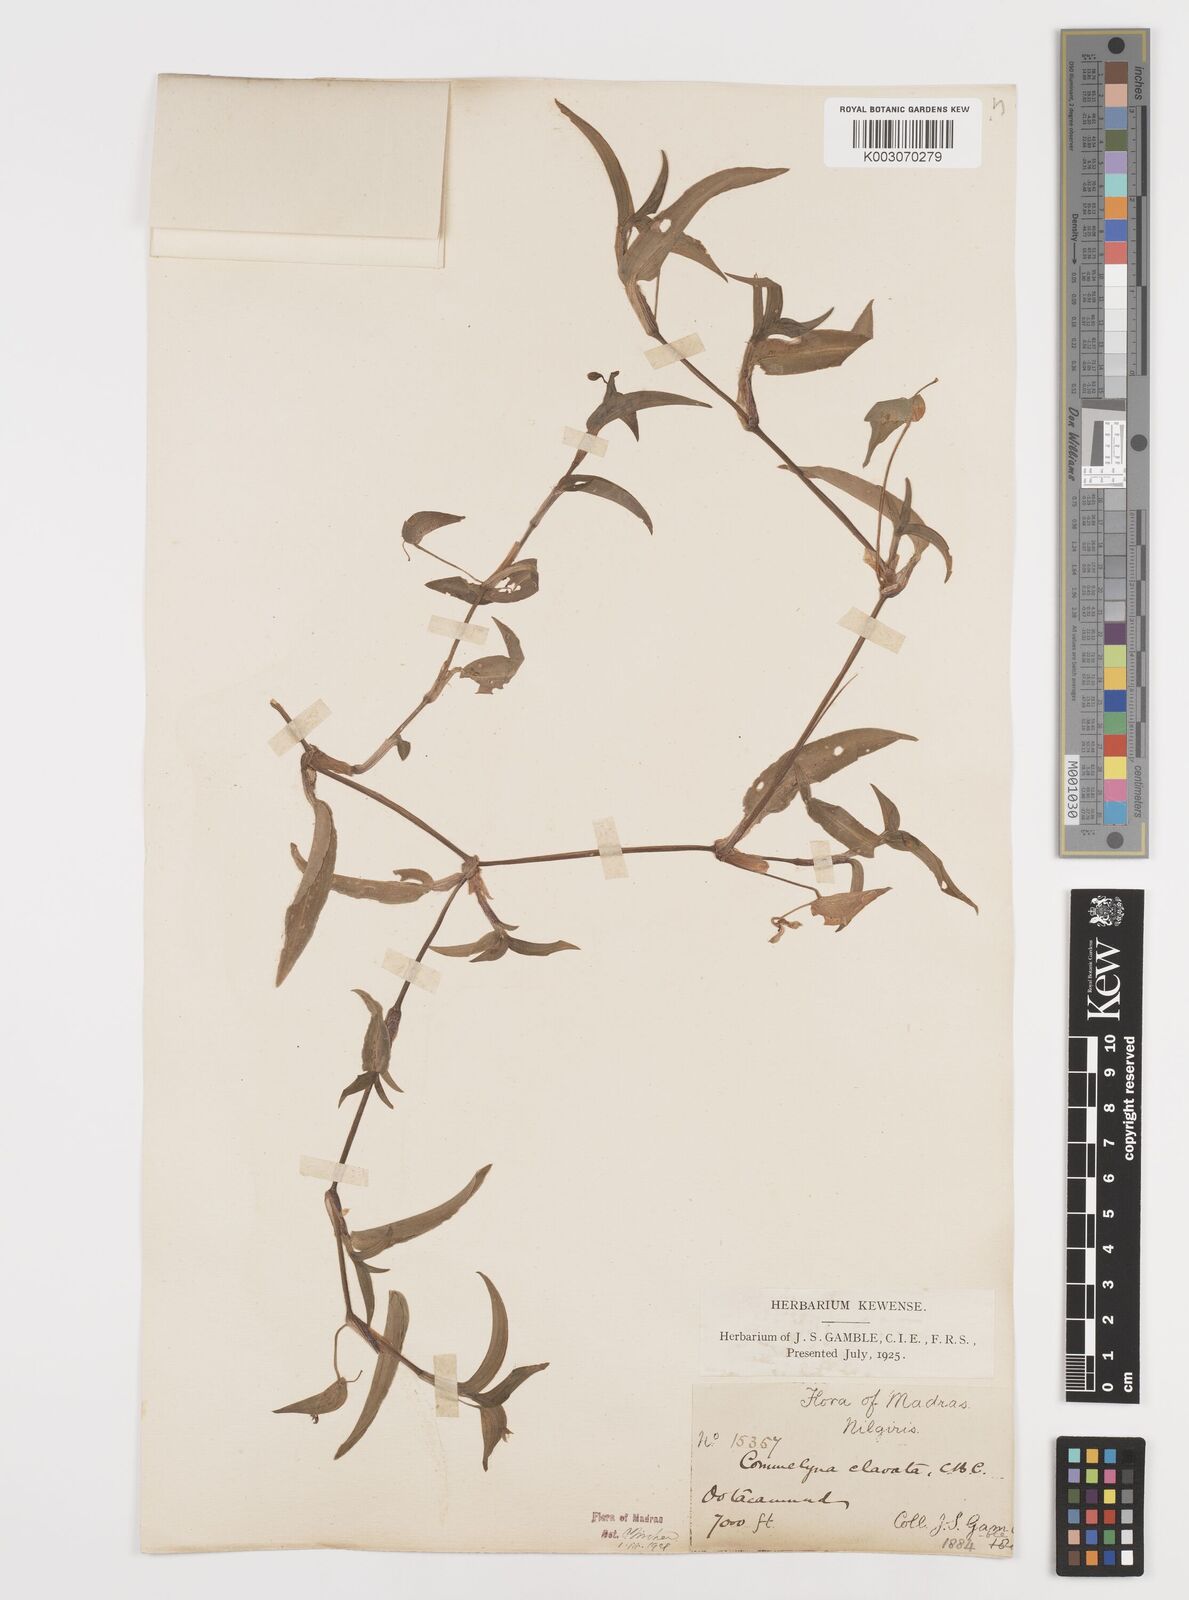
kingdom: Plantae
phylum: Tracheophyta
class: Liliopsida
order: Commelinales
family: Commelinaceae
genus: Commelina
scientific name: Commelina clavata
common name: Willow leaved dayflower
